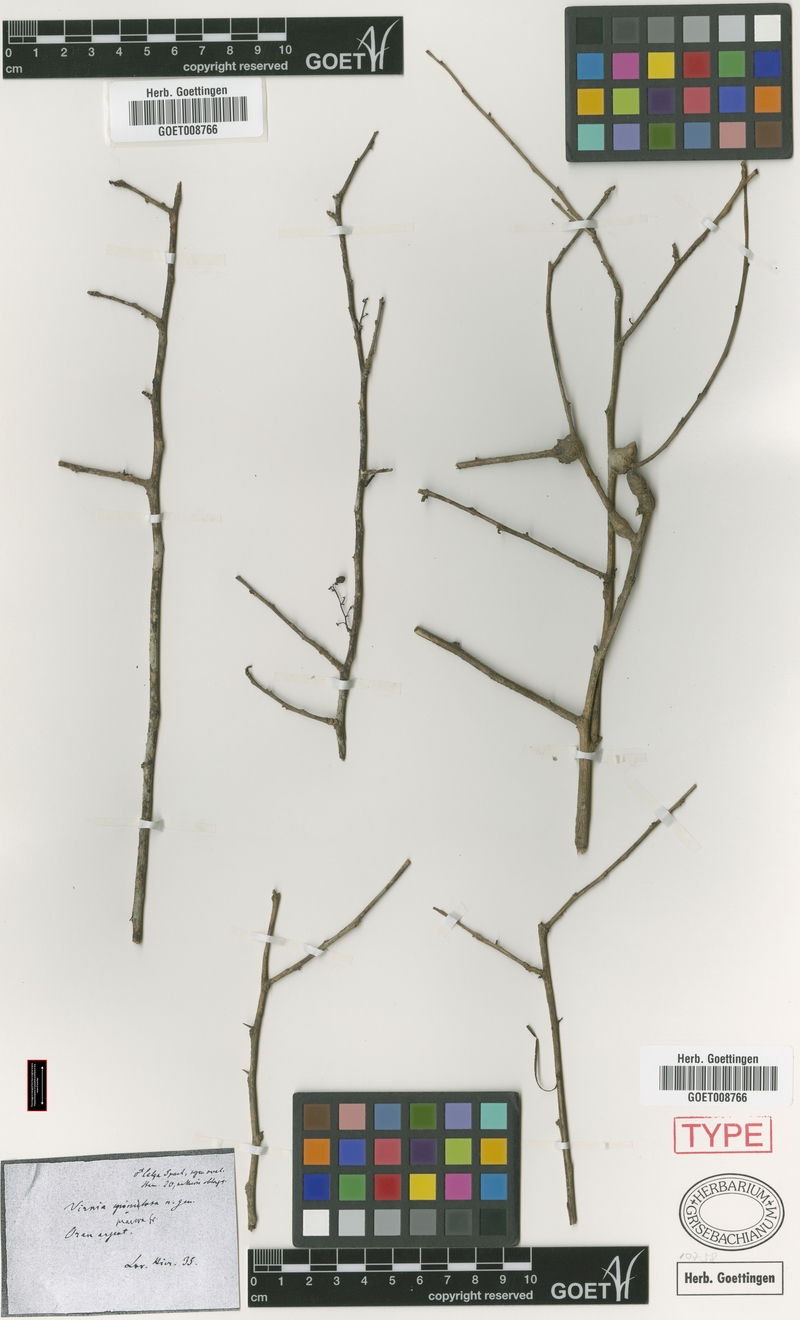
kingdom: Plantae
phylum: Tracheophyta
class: Magnoliopsida
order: Caryophyllales
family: Achatocarpaceae
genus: Achatocarpus
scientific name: Achatocarpus praecox
